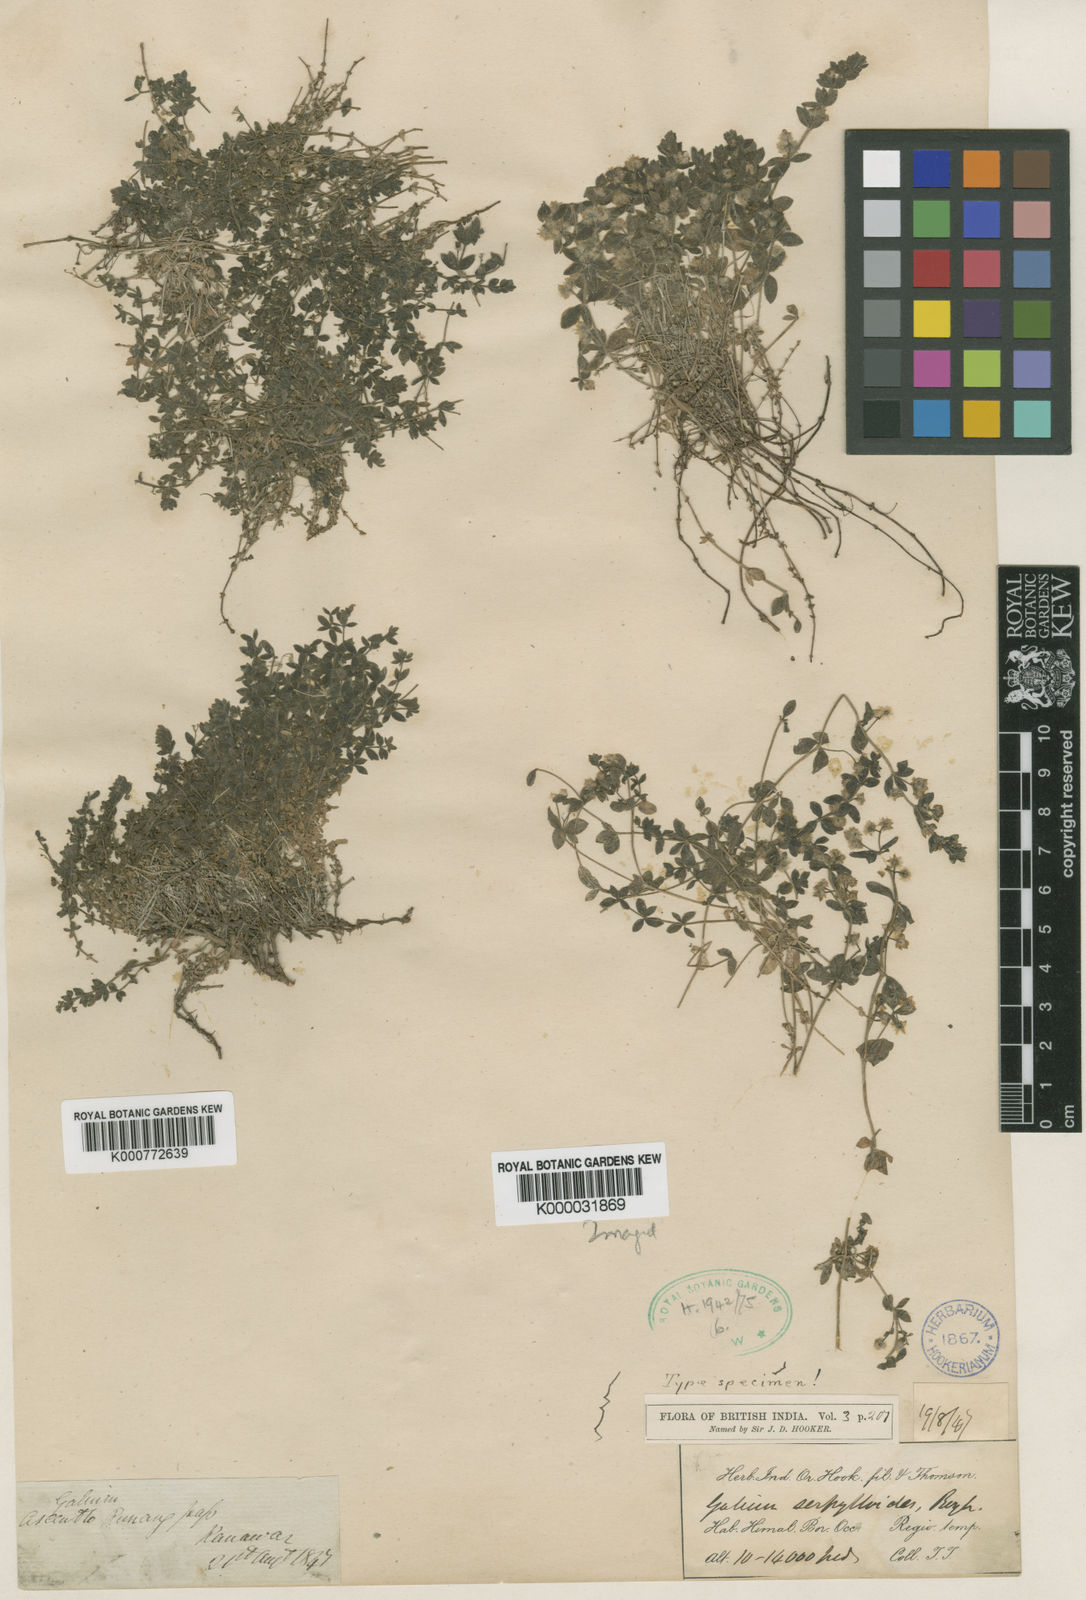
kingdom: Plantae
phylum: Tracheophyta
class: Magnoliopsida
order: Gentianales
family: Rubiaceae
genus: Galium
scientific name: Galium serpylloides
